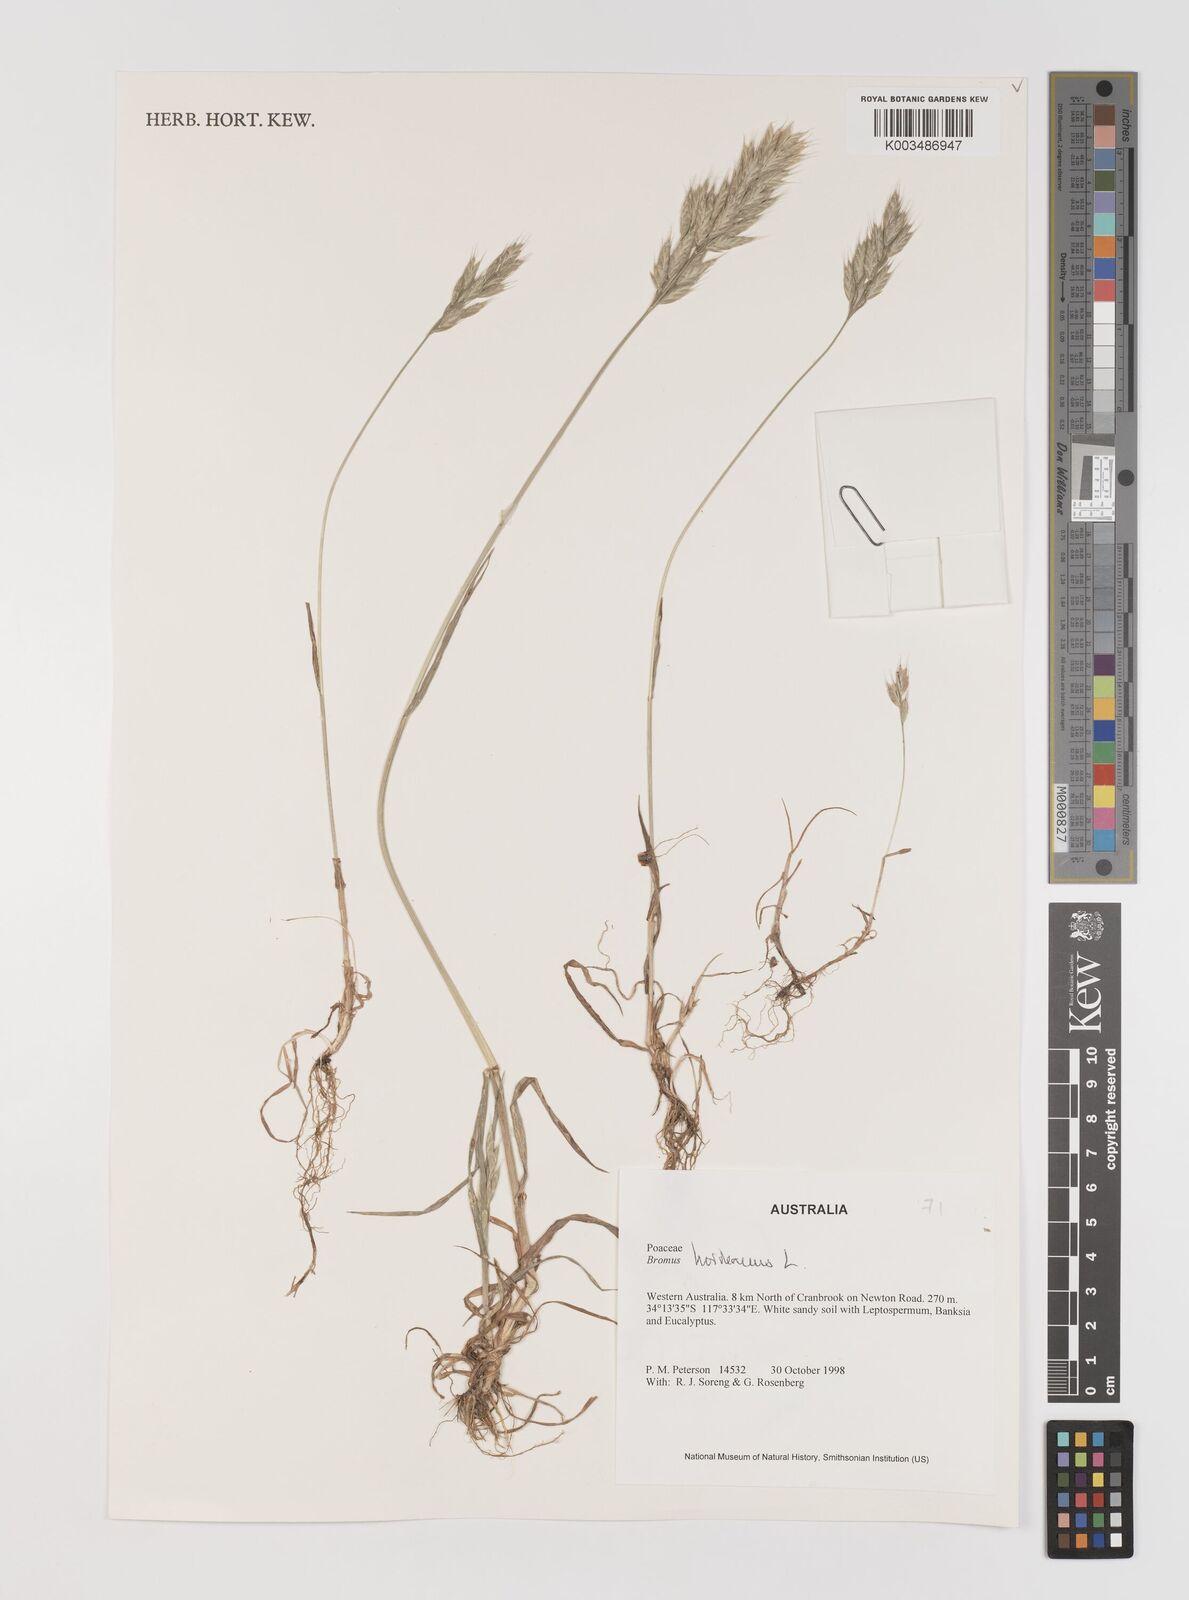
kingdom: Plantae
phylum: Tracheophyta
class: Liliopsida
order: Poales
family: Poaceae
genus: Bromus
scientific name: Bromus hordeaceus
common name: Soft brome
